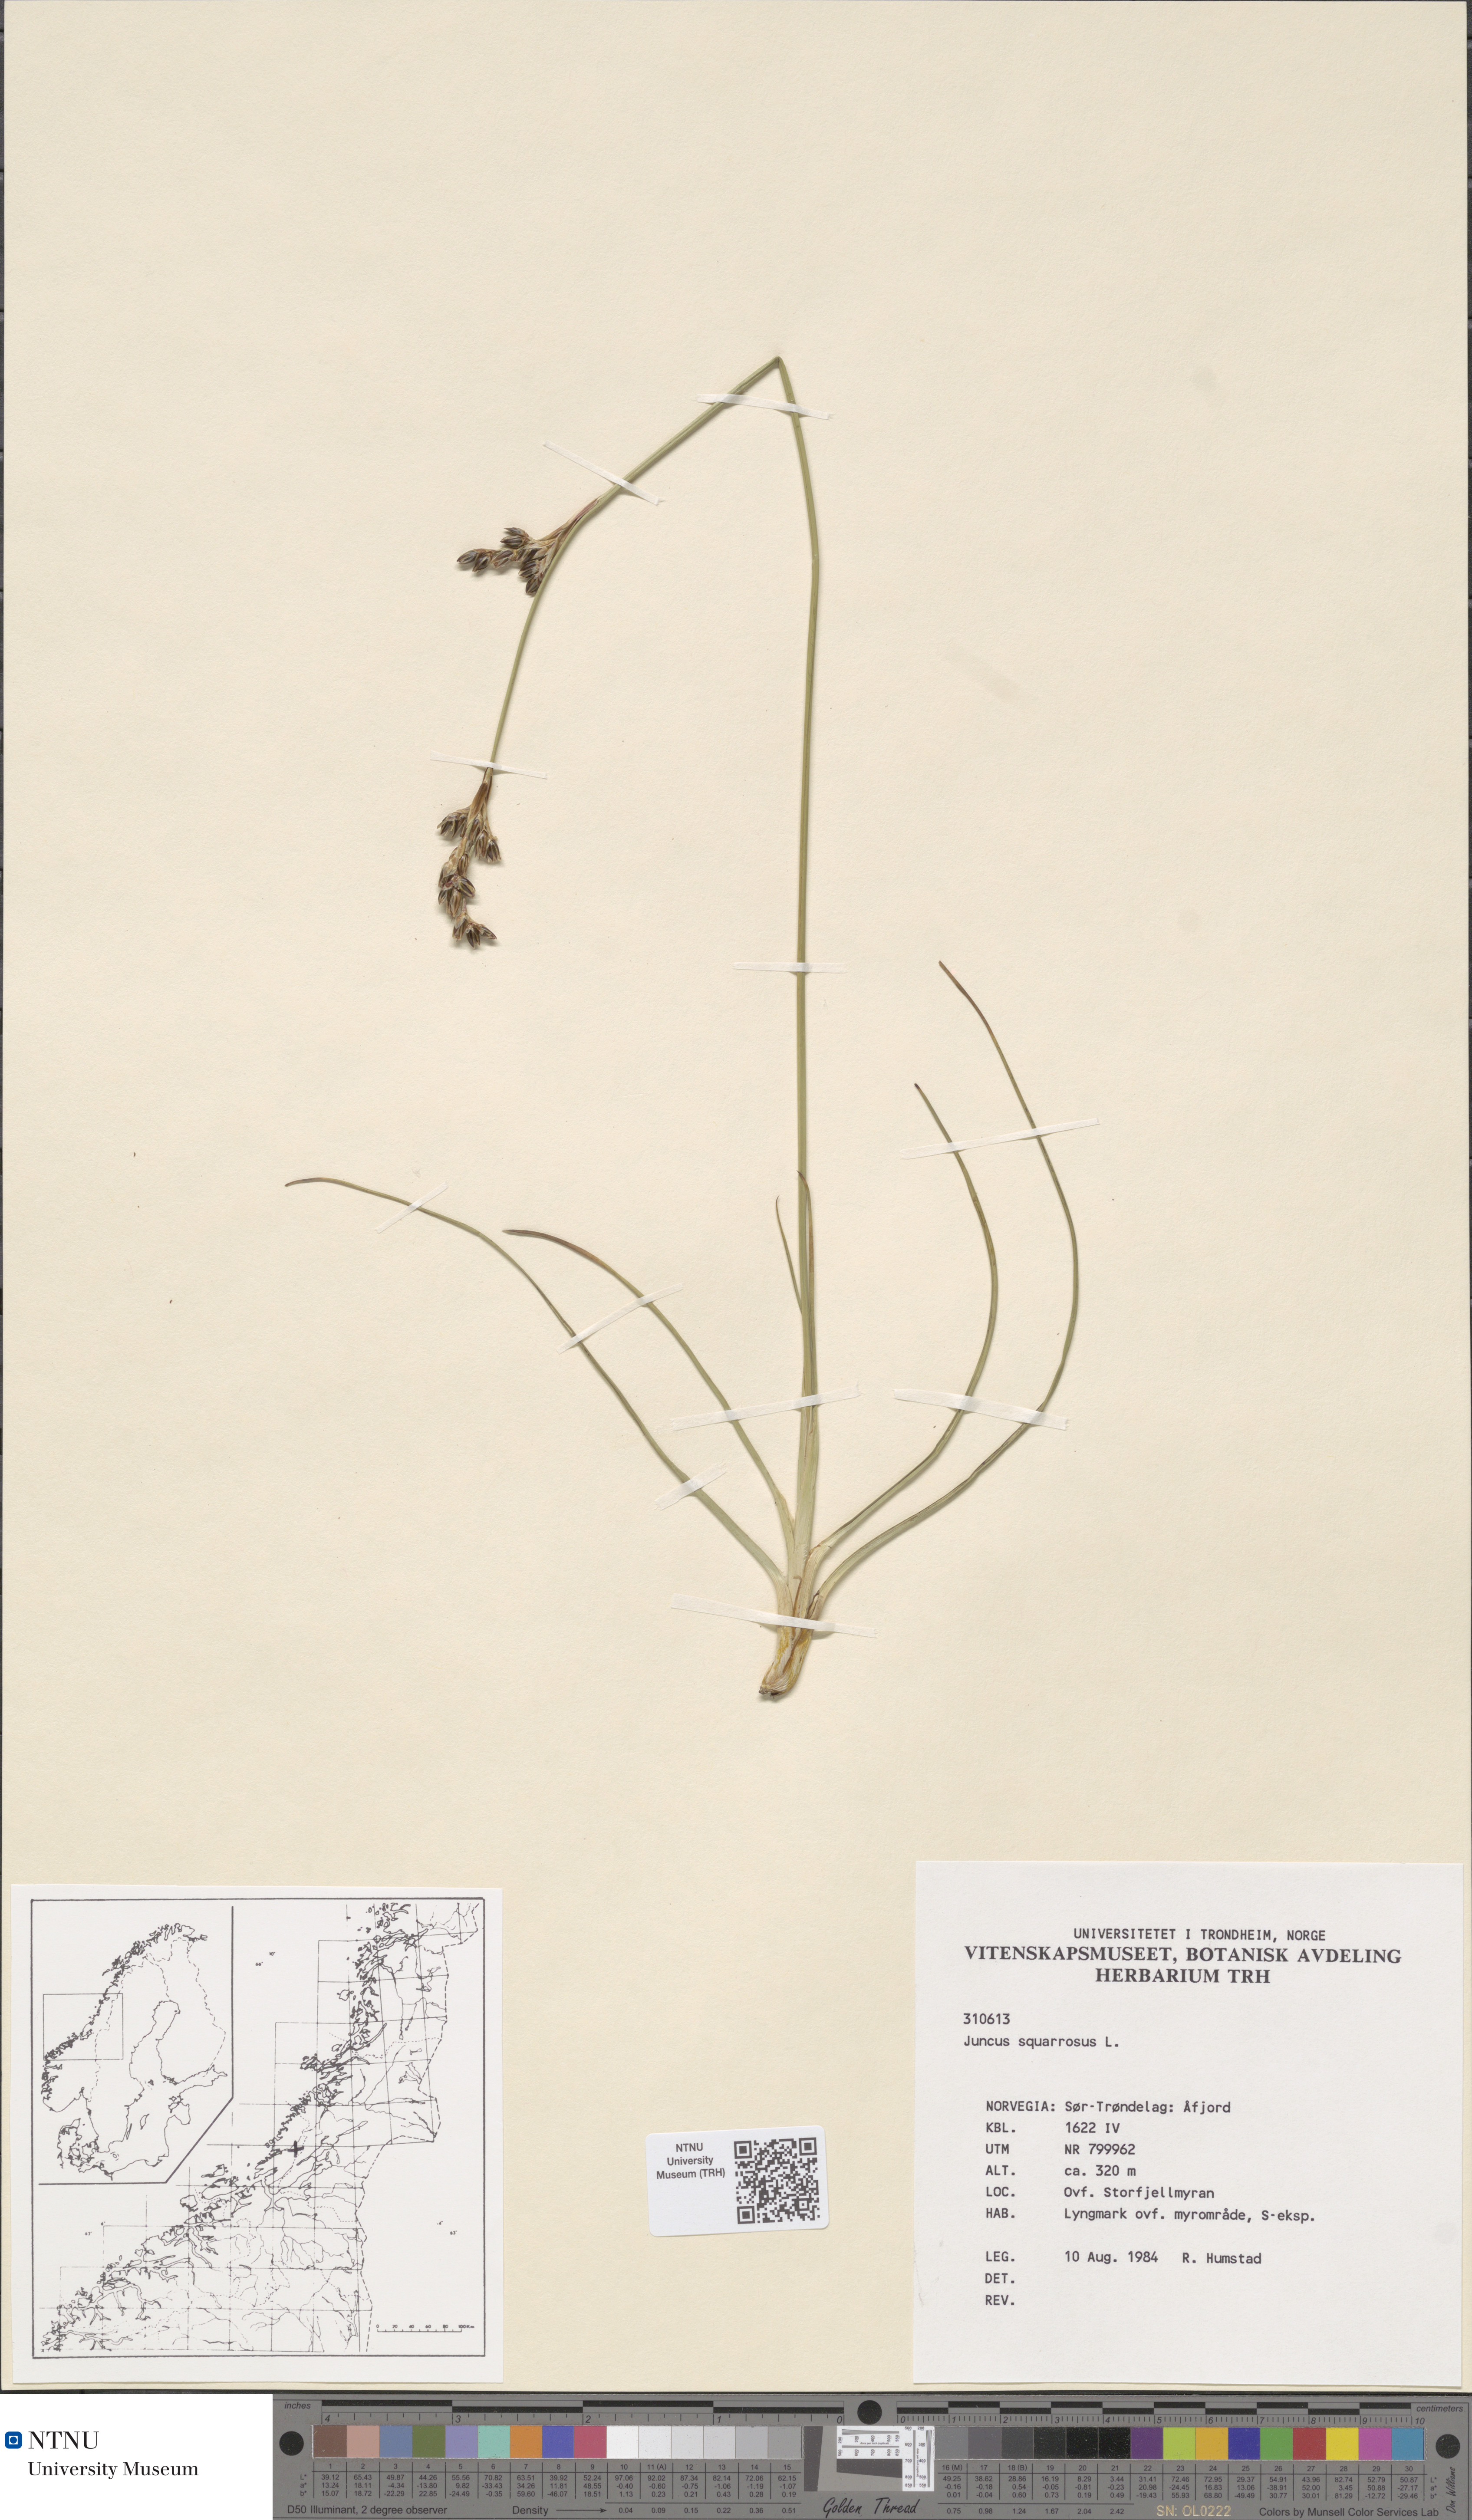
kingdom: Plantae
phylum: Tracheophyta
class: Liliopsida
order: Poales
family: Juncaceae
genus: Juncus
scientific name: Juncus squarrosus
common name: Heath rush
